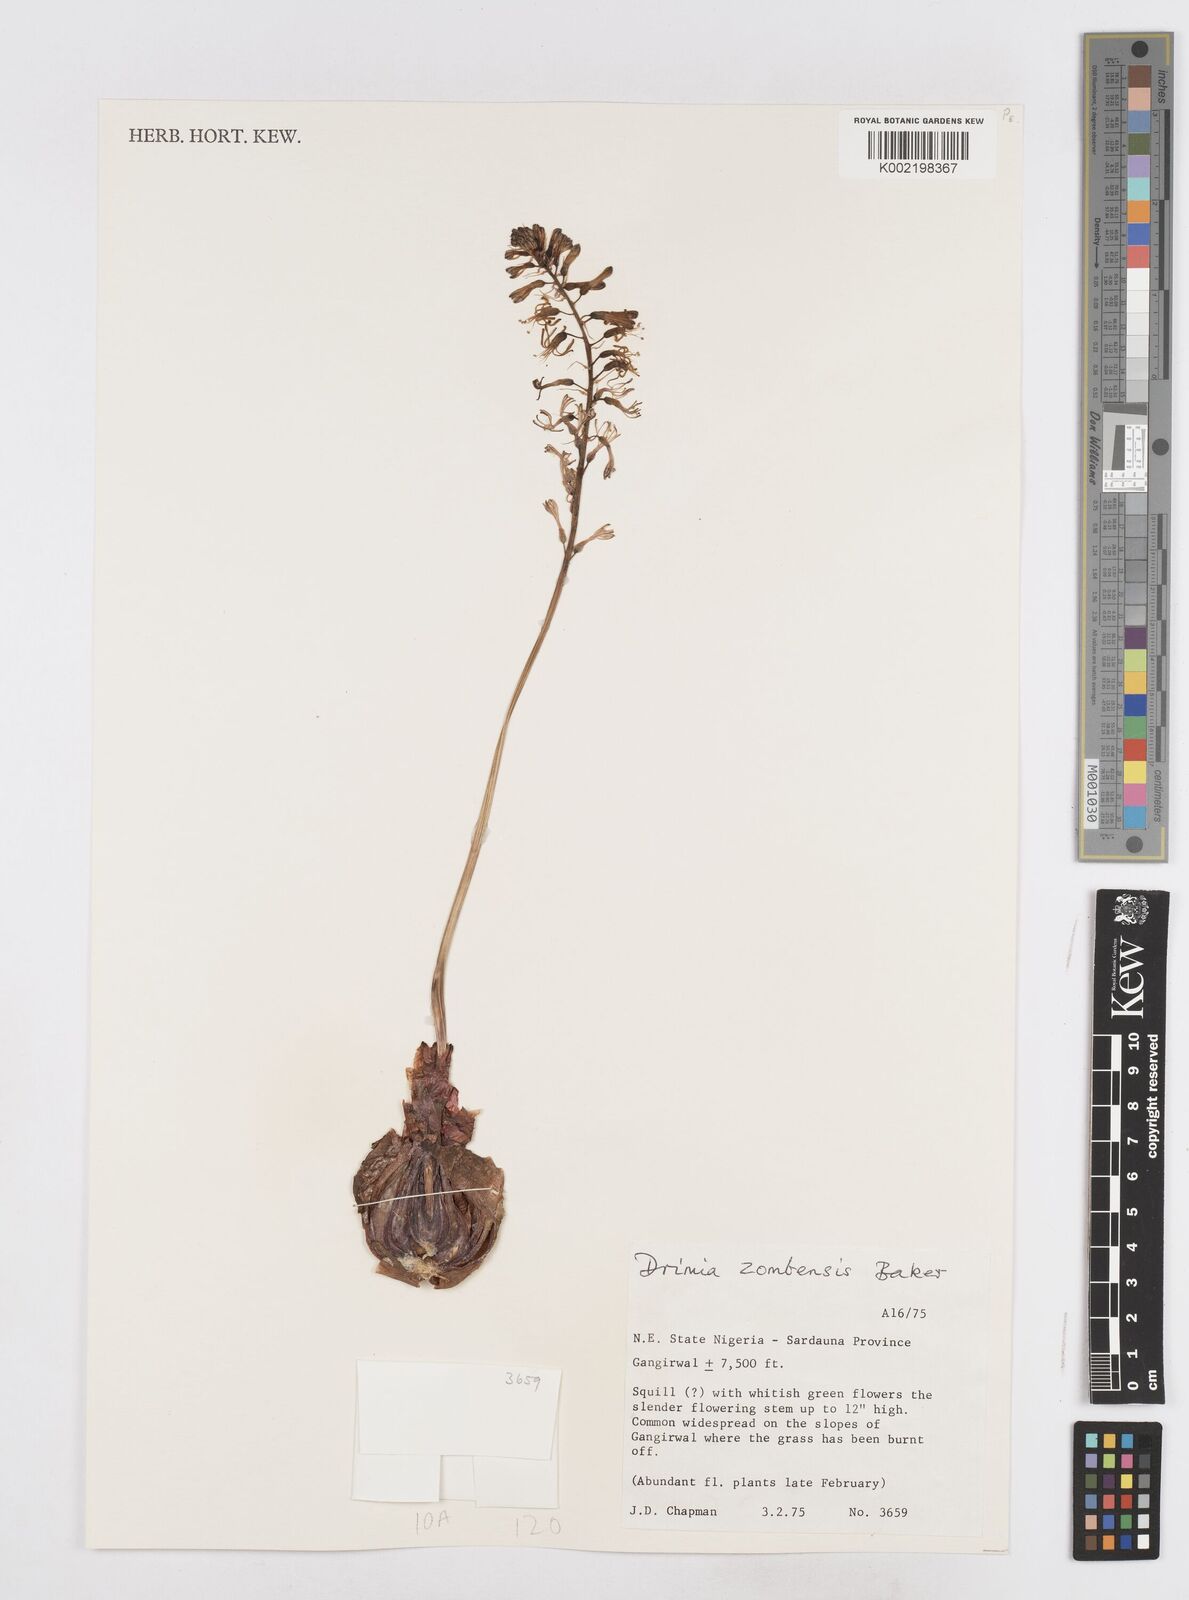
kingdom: Plantae
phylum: Tracheophyta
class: Liliopsida
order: Asparagales
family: Asparagaceae
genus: Drimia
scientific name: Drimia elata
